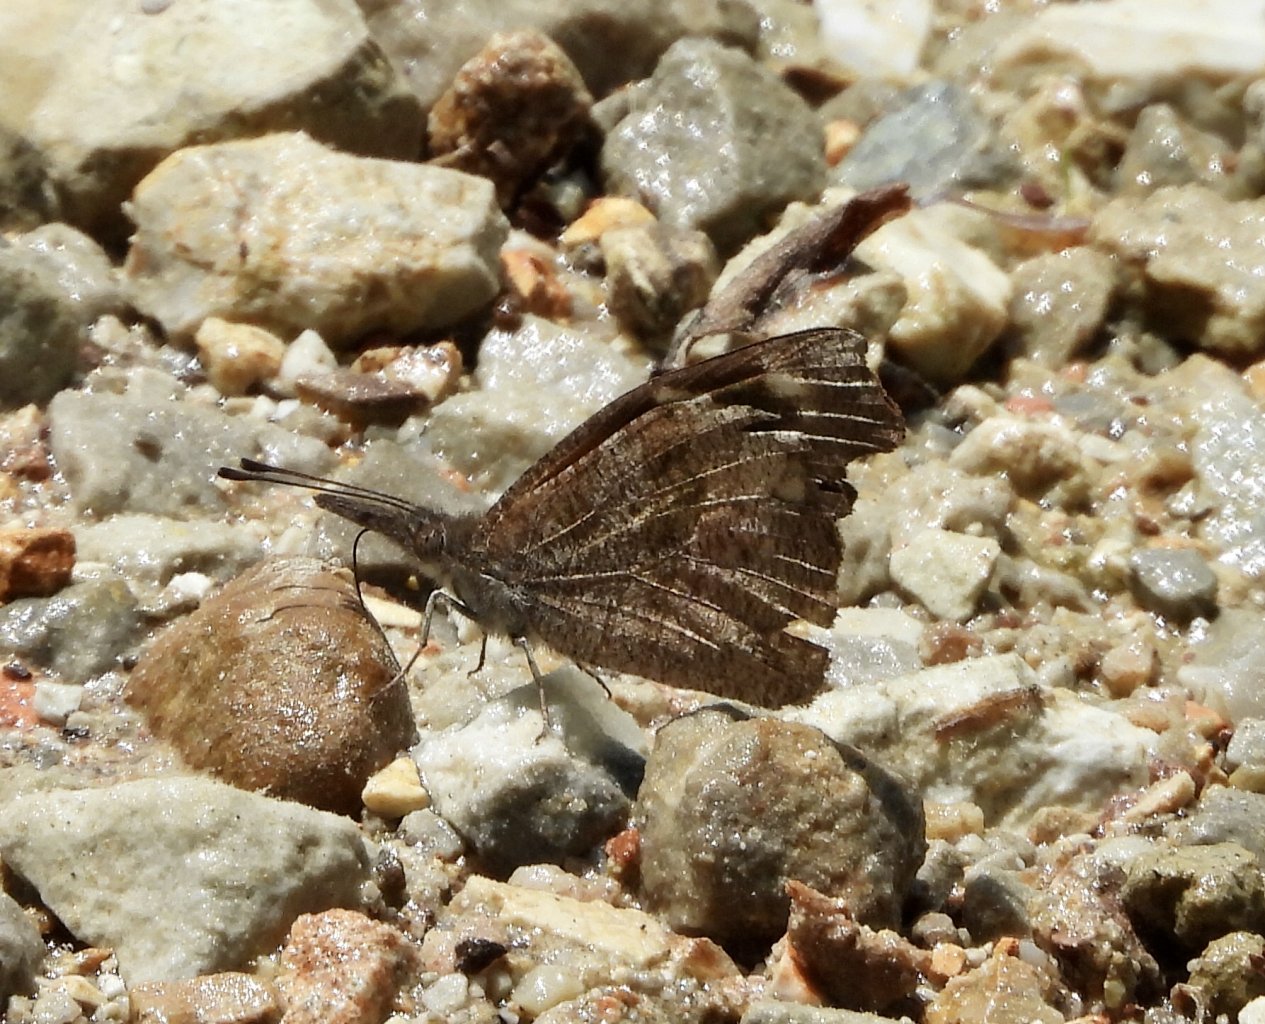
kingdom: Animalia
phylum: Arthropoda
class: Insecta
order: Lepidoptera
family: Nymphalidae
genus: Libytheana
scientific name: Libytheana carinenta
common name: American Snout
